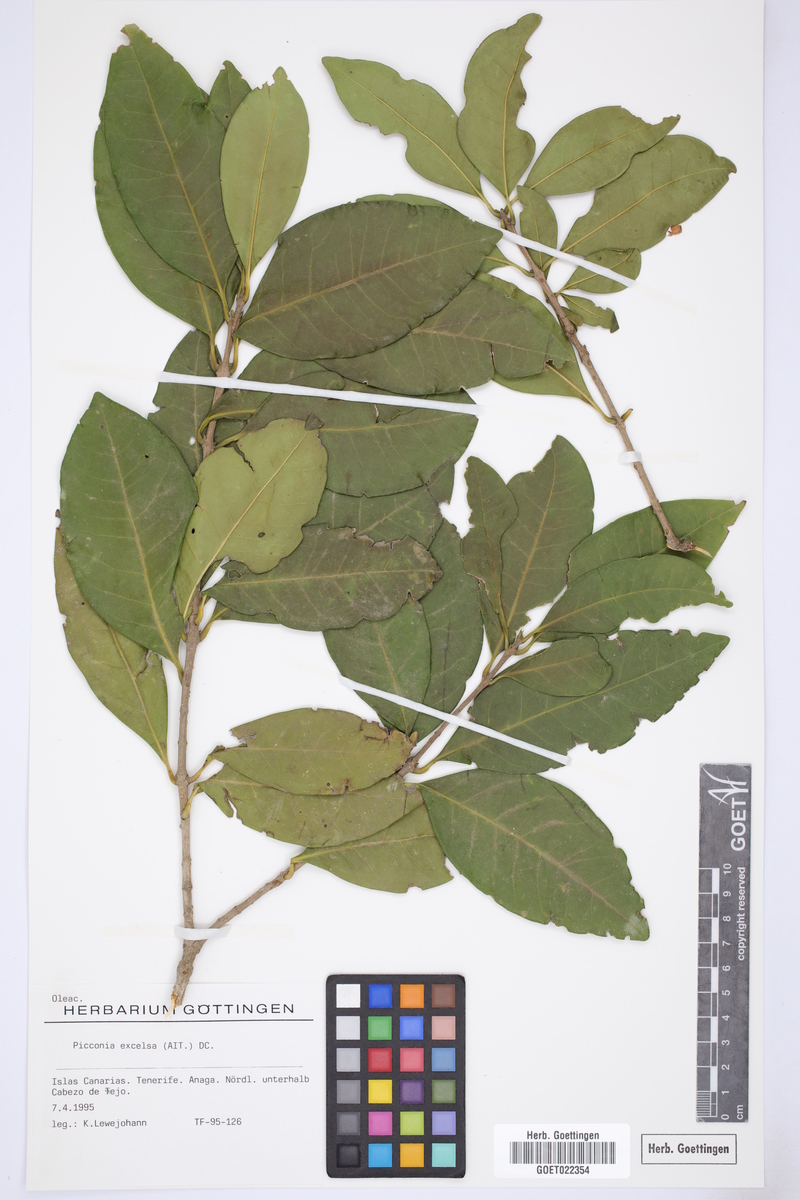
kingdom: Plantae
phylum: Tracheophyta
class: Magnoliopsida
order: Lamiales
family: Oleaceae
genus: Picconia
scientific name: Picconia excelsa
